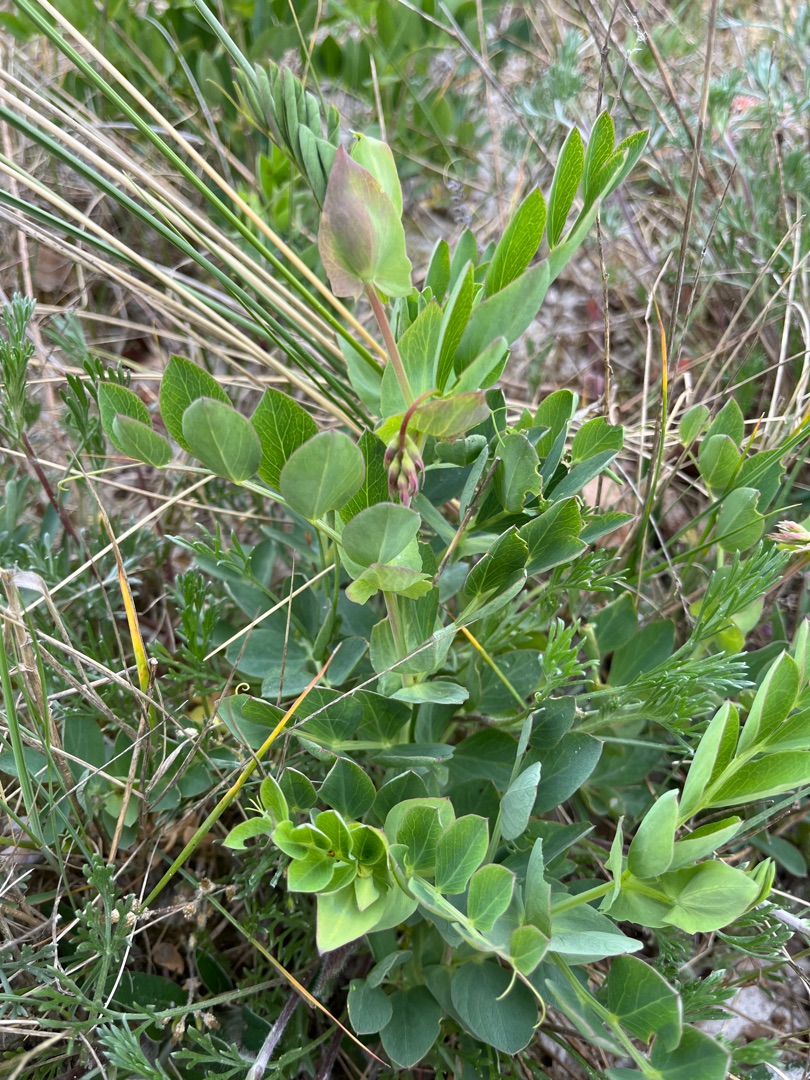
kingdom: Plantae
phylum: Tracheophyta
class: Magnoliopsida
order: Fabales
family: Fabaceae
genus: Lathyrus
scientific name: Lathyrus japonicus
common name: Strand-fladbælg
